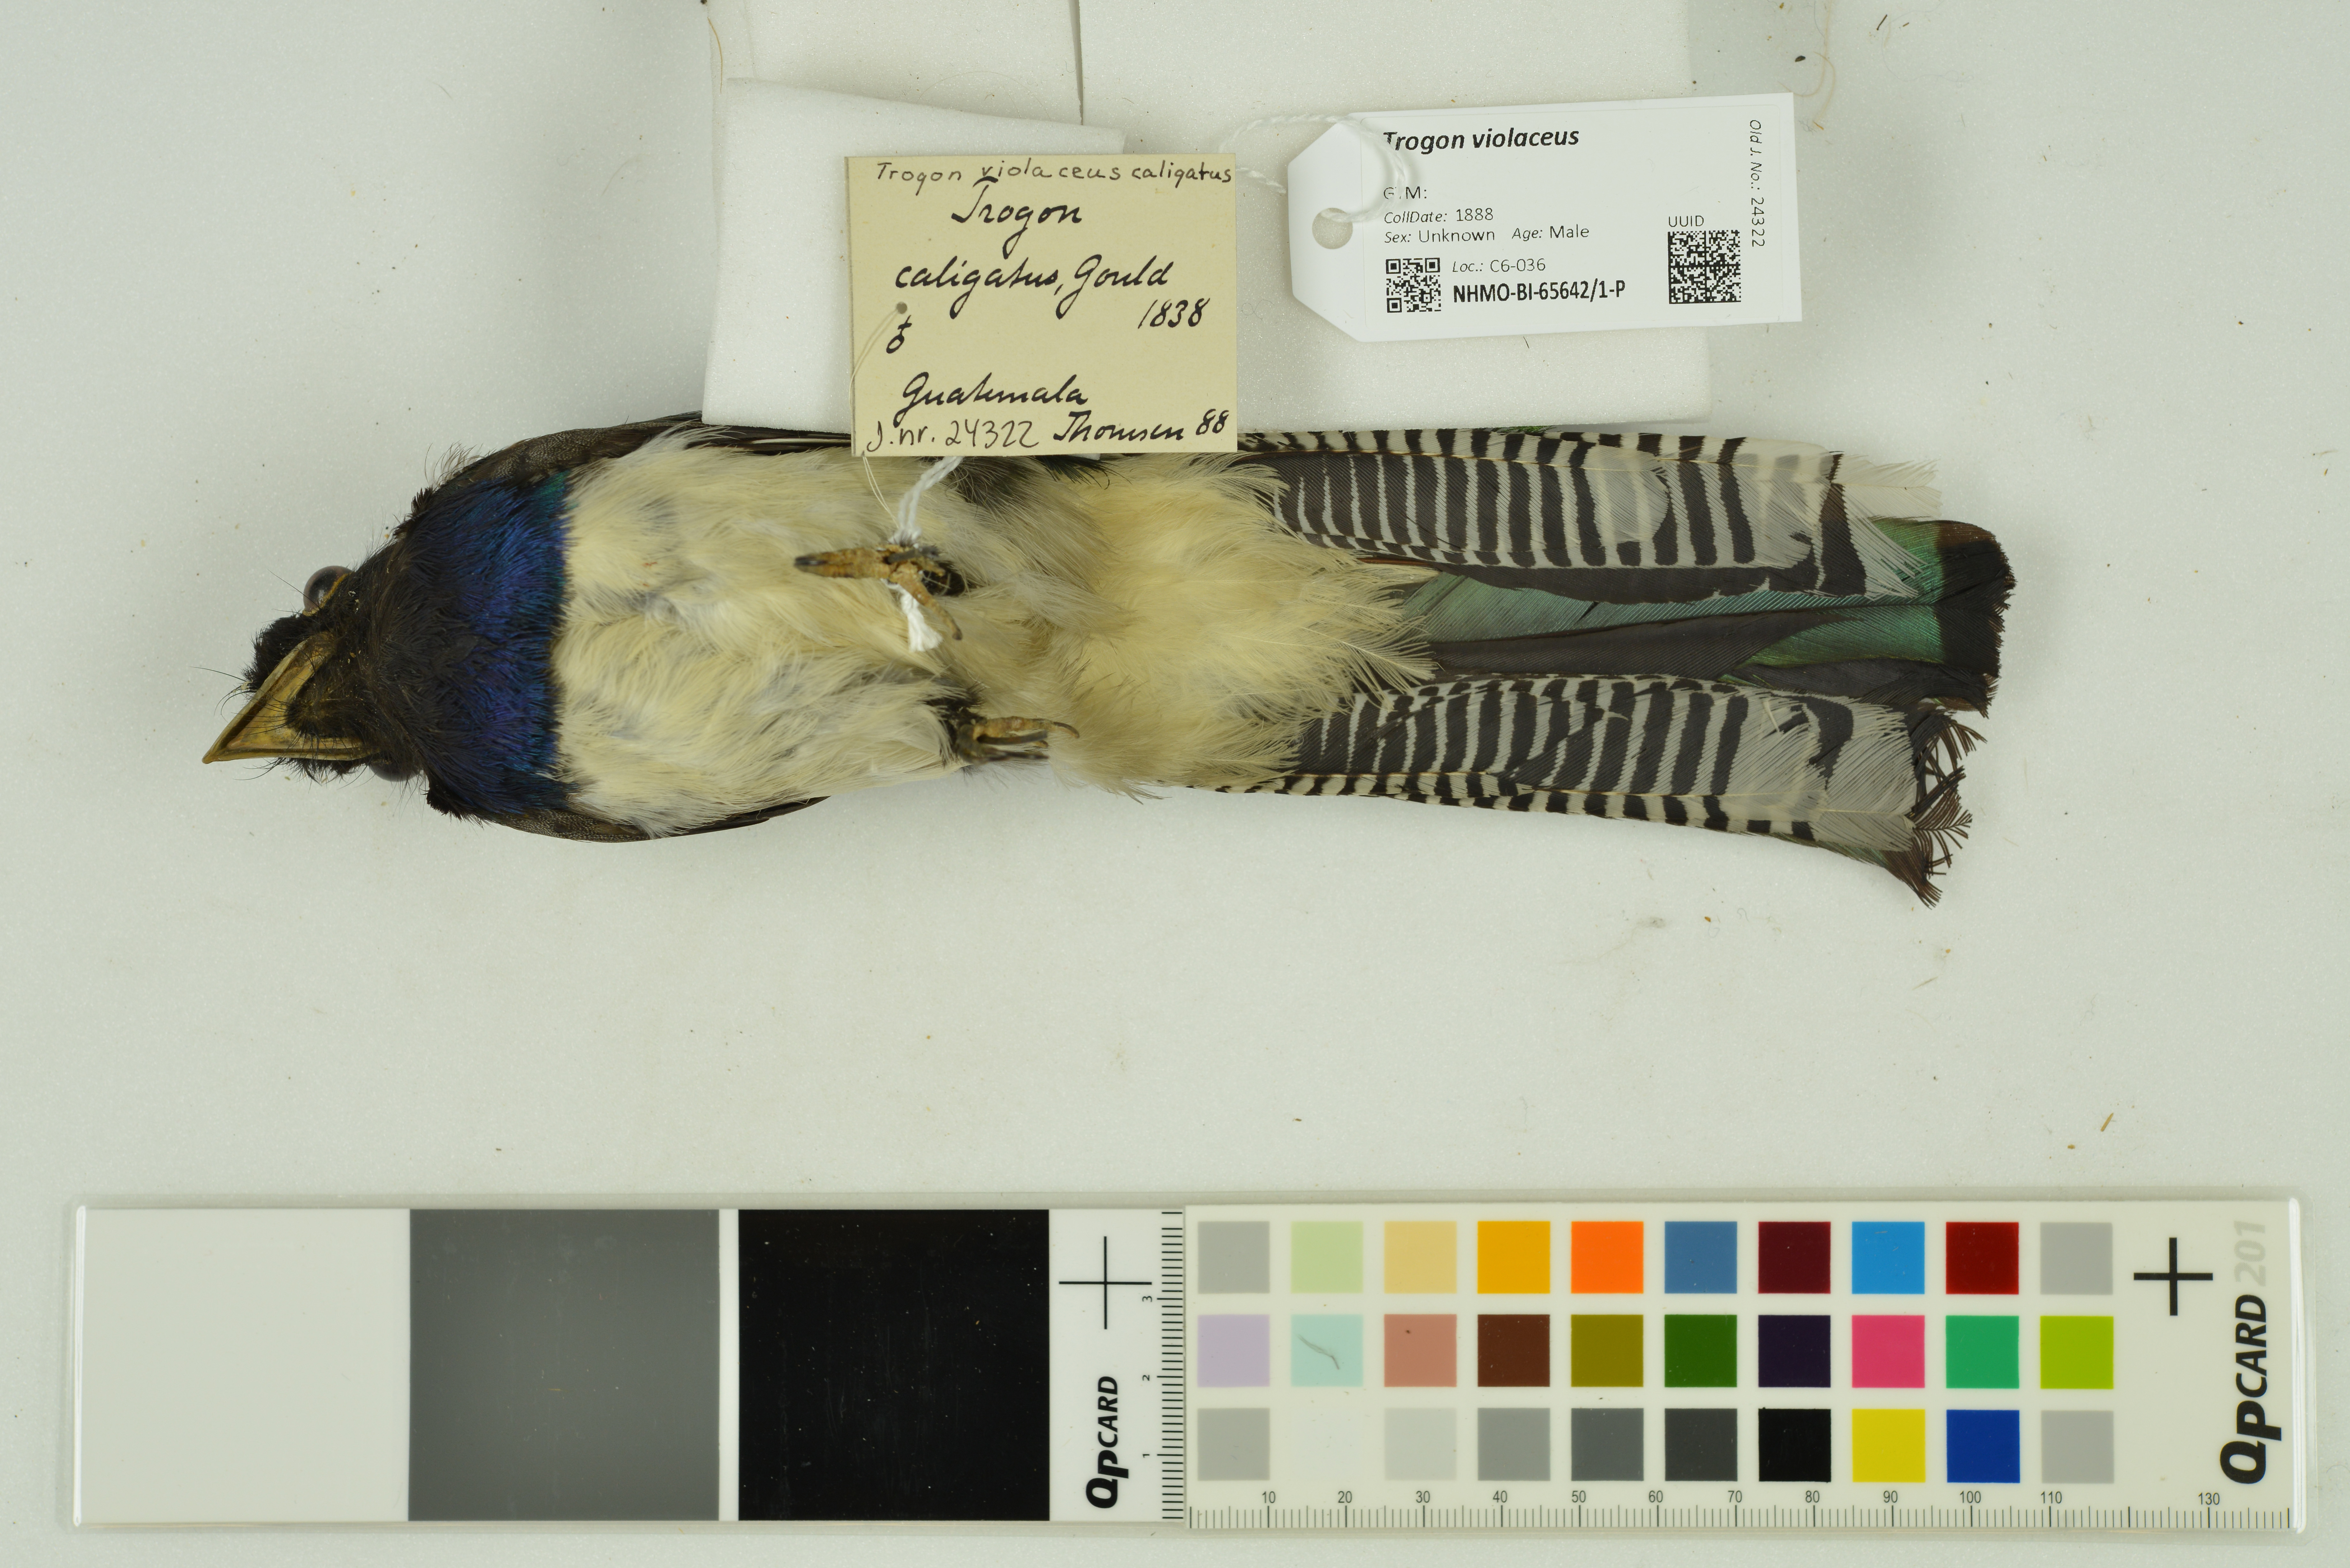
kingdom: Animalia
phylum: Chordata
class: Aves
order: Trogoniformes
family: Trogonidae
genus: Trogon
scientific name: Trogon violaceus
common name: Guianan trogon
